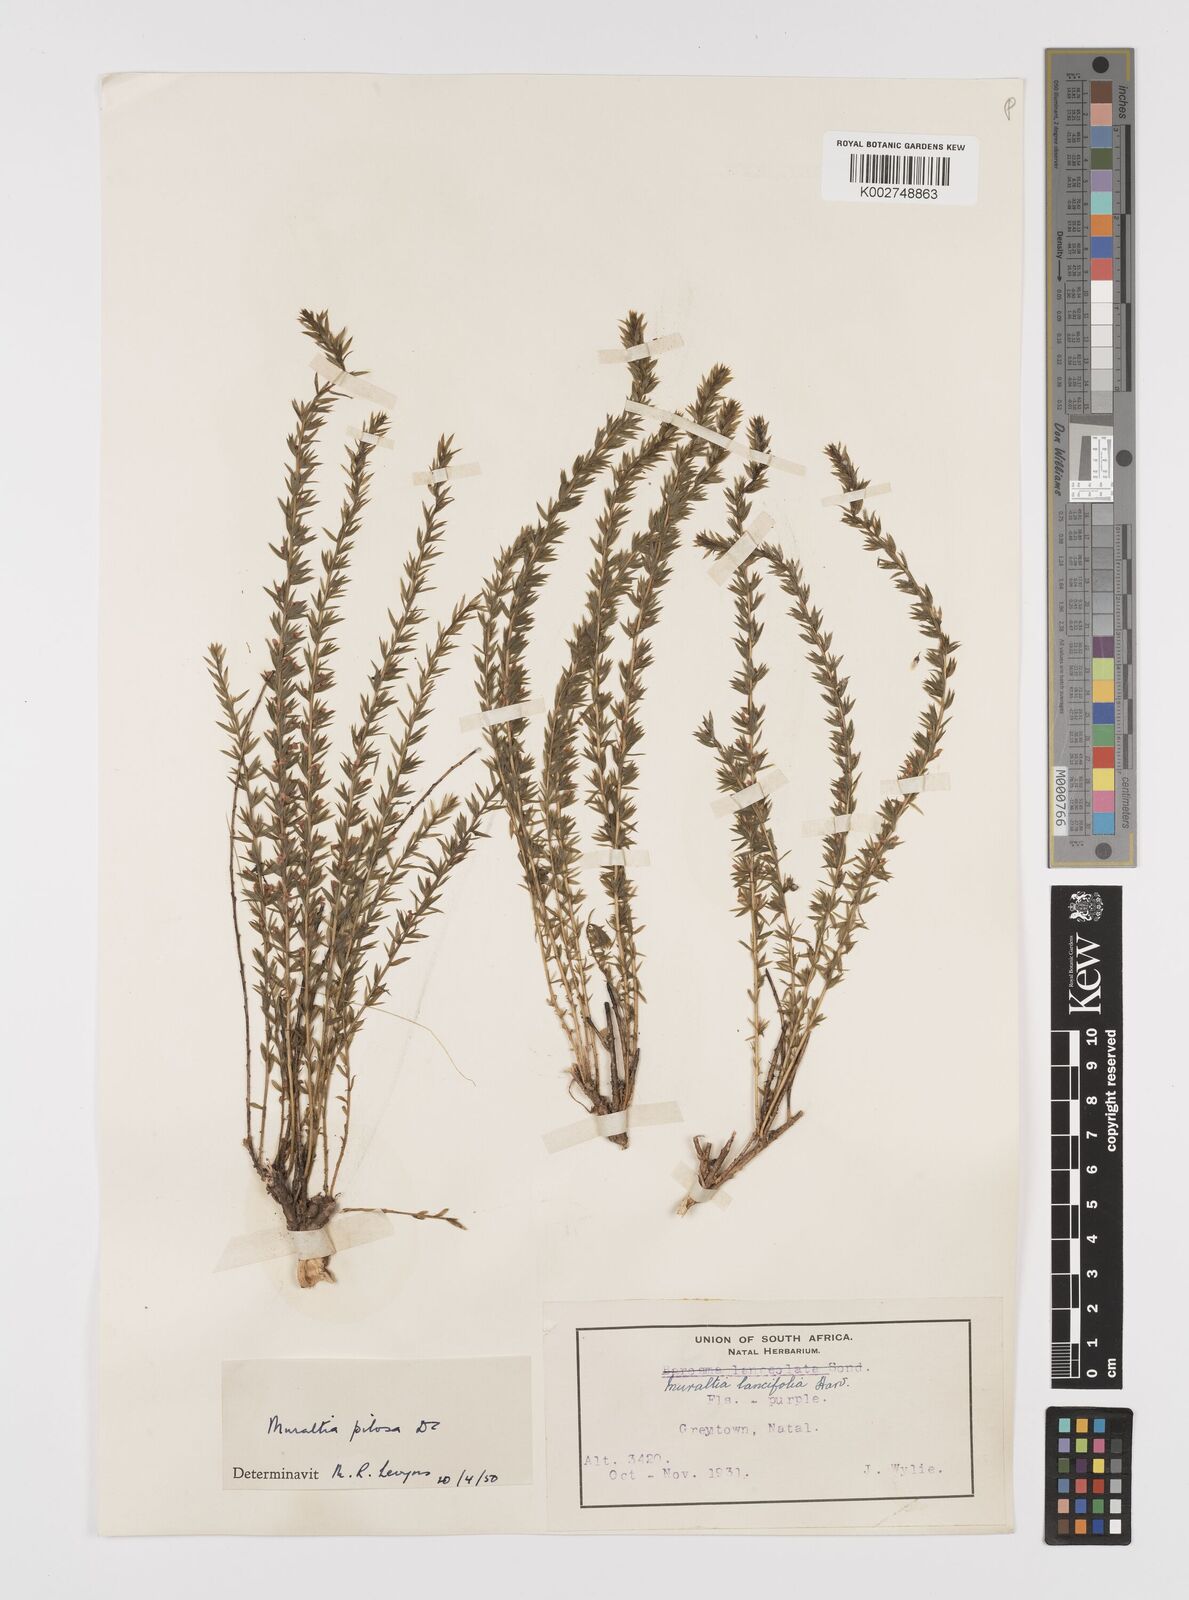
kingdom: Plantae
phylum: Tracheophyta
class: Magnoliopsida
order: Fabales
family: Polygalaceae
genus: Muraltia
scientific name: Muraltia lancifolia
